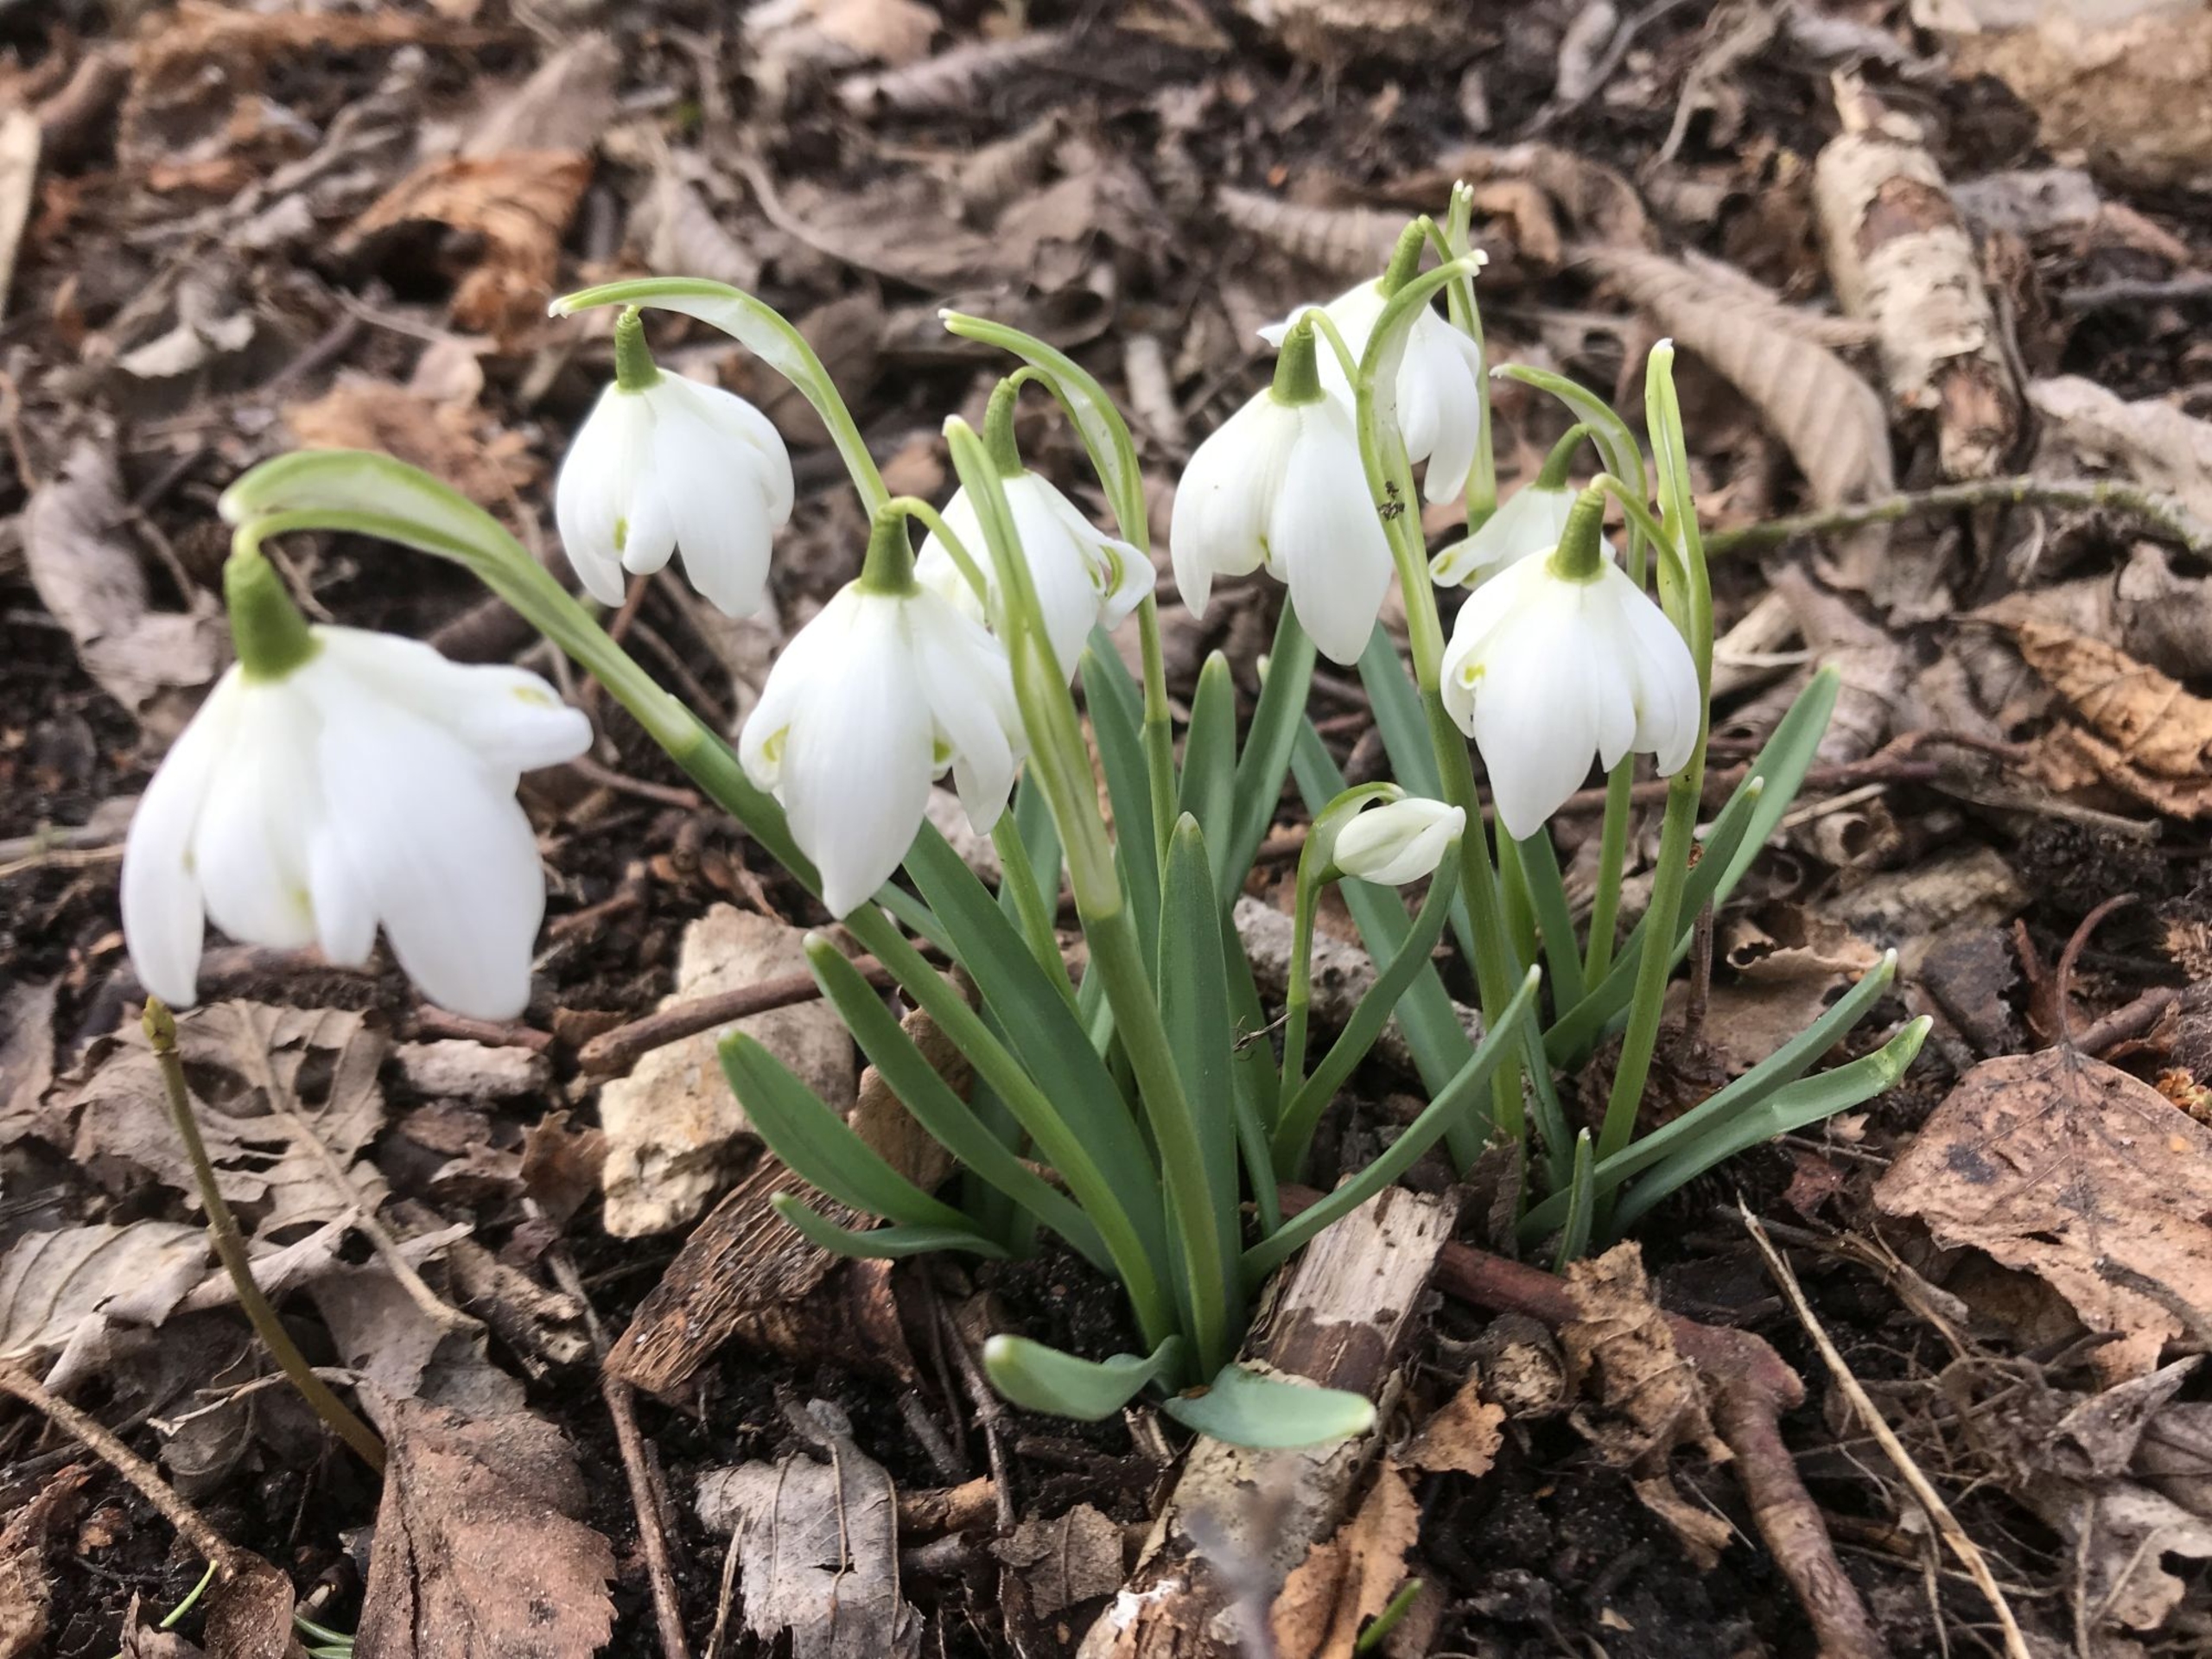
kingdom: Plantae
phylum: Tracheophyta
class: Liliopsida
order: Asparagales
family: Amaryllidaceae
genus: Galanthus
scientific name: Galanthus nivalis
